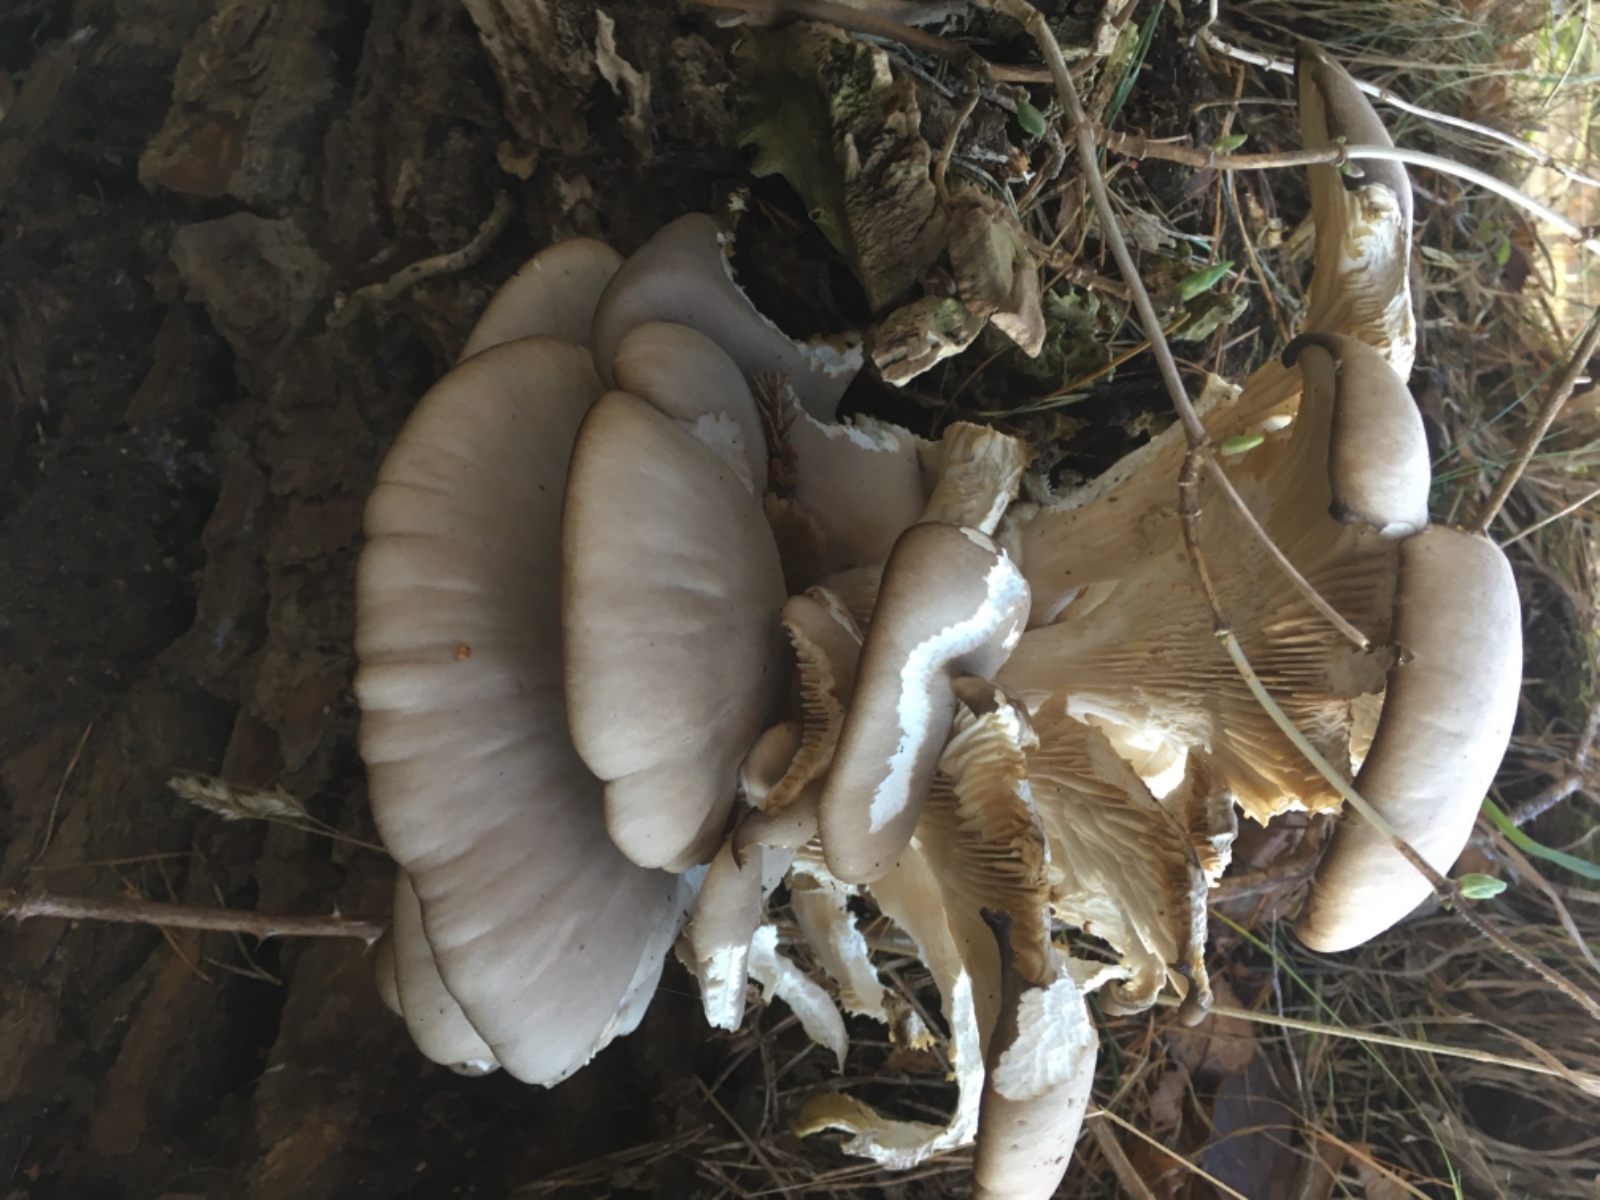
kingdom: Fungi
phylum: Basidiomycota
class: Agaricomycetes
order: Agaricales
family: Pleurotaceae
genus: Pleurotus
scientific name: Pleurotus ostreatus
